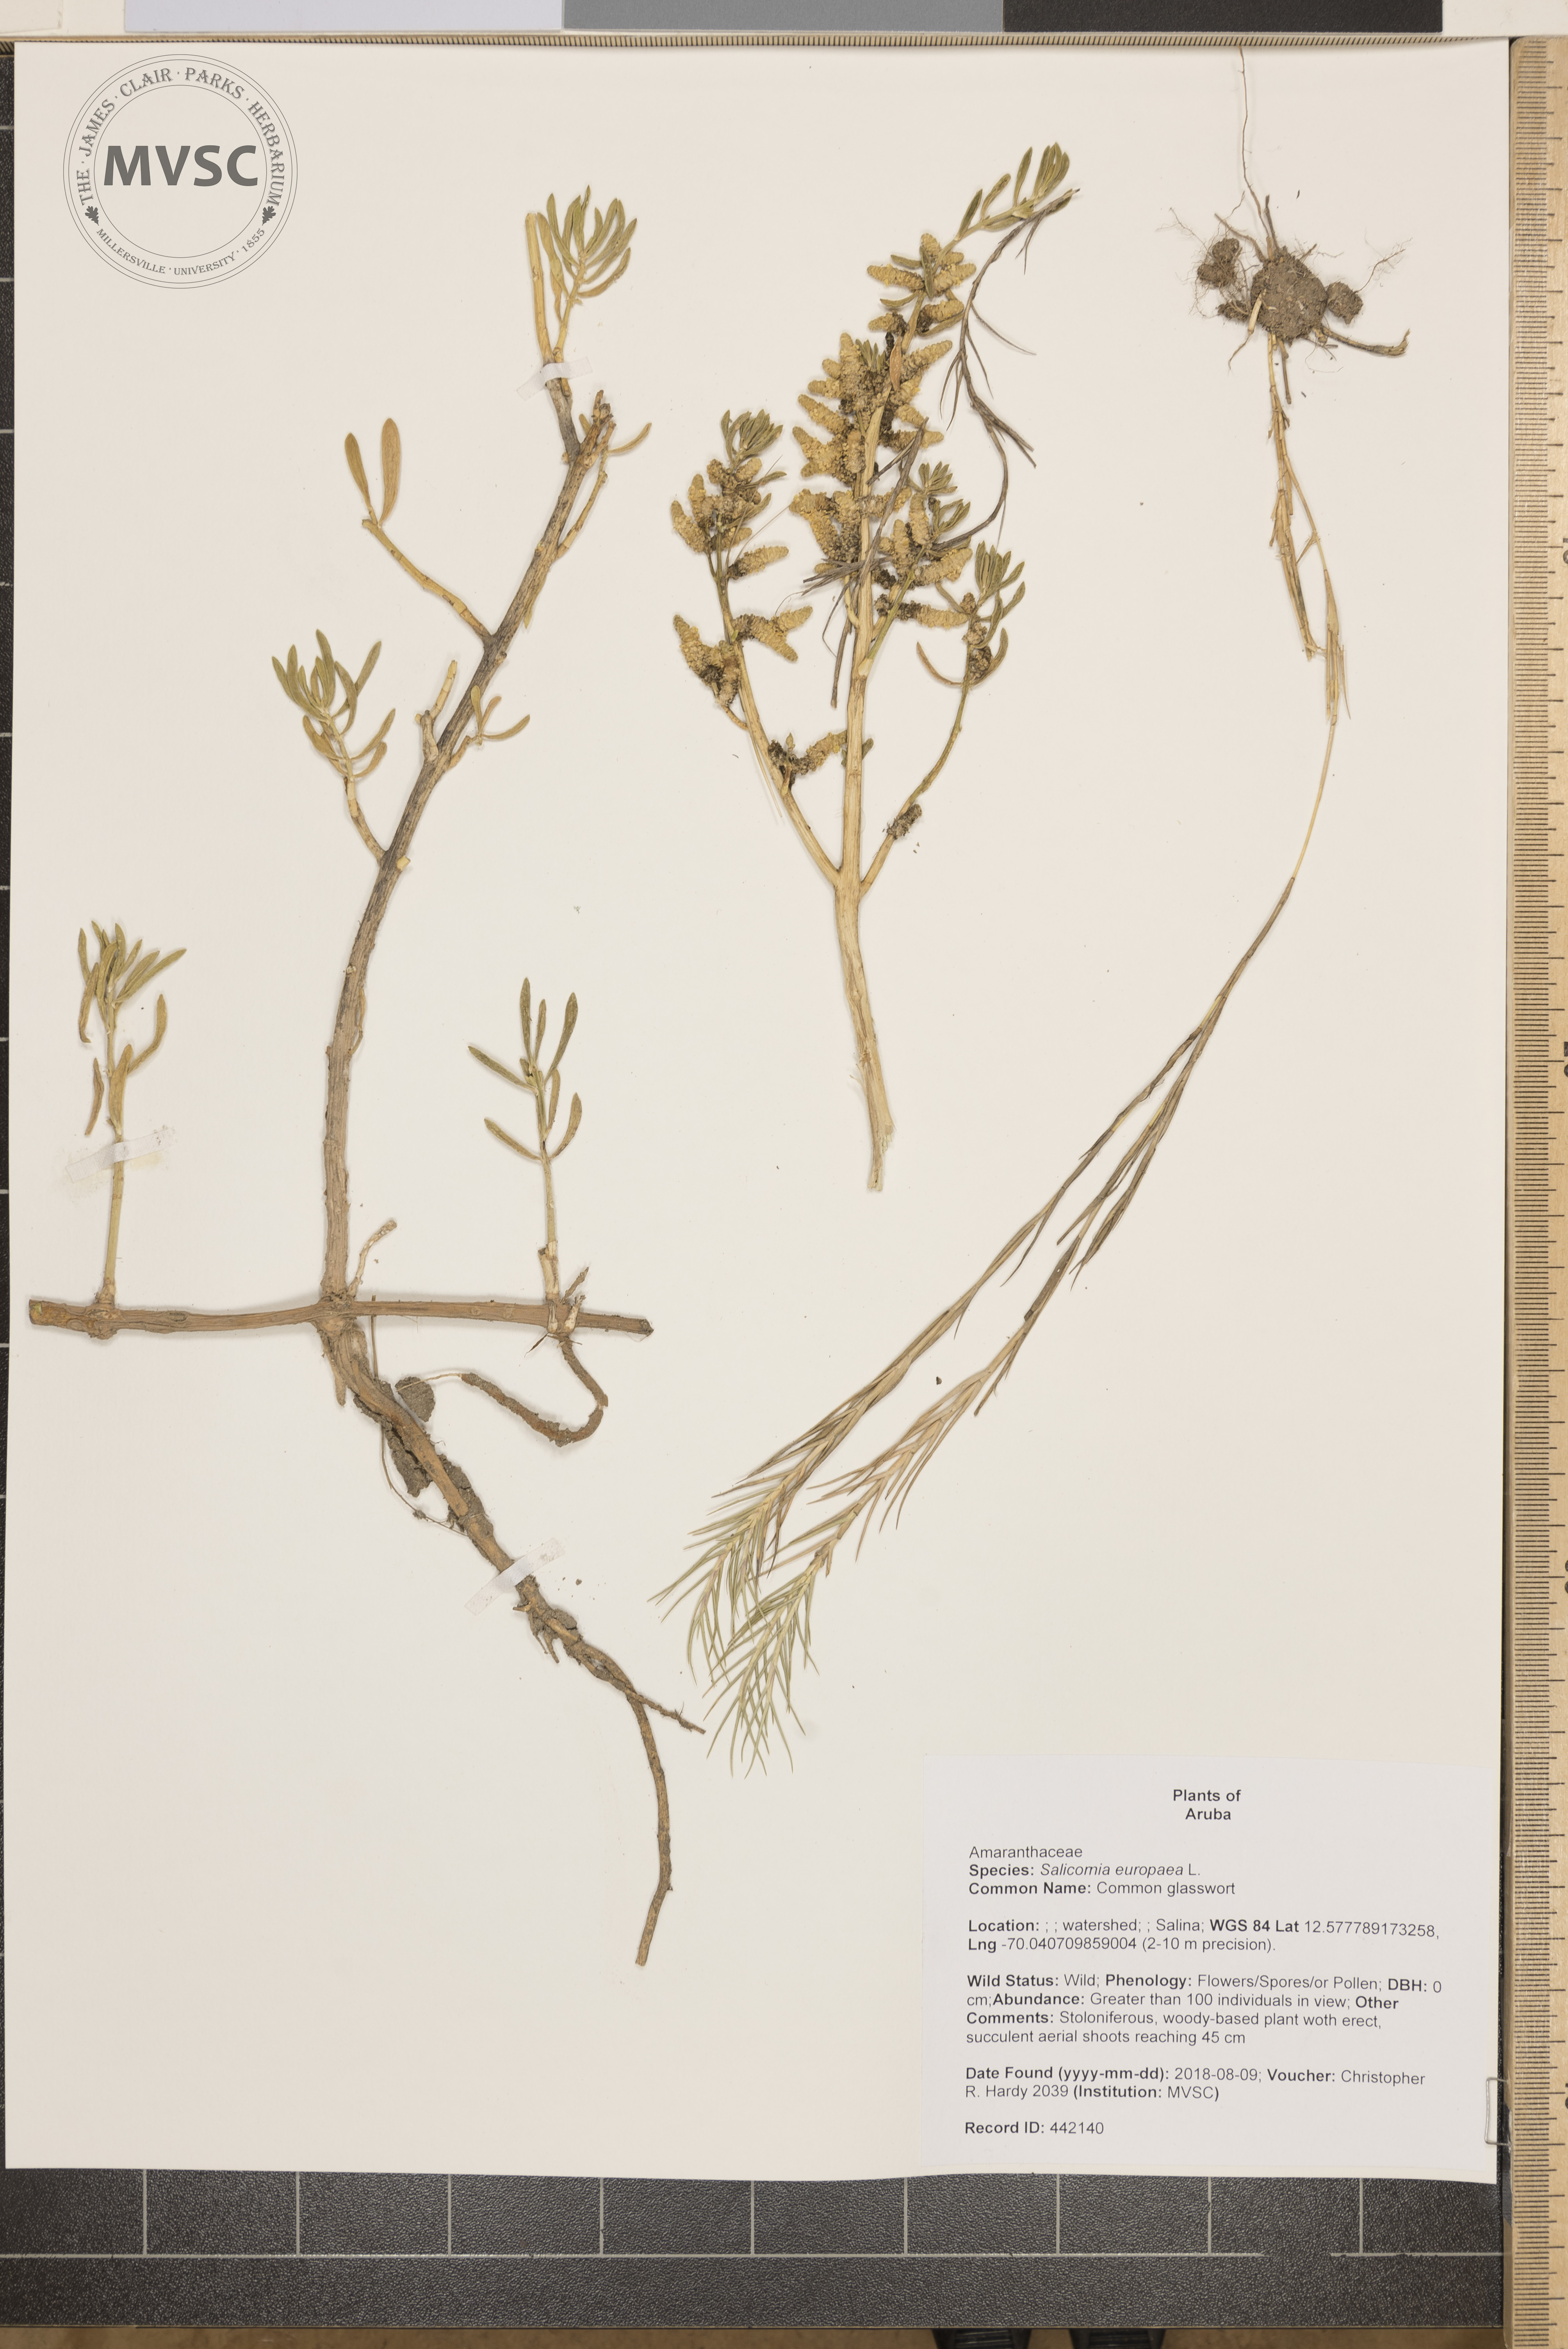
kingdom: Plantae
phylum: Tracheophyta
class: Magnoliopsida
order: Caryophyllales
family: Amaranthaceae
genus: Salicornia
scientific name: Salicornia europaea
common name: Common glasswort
